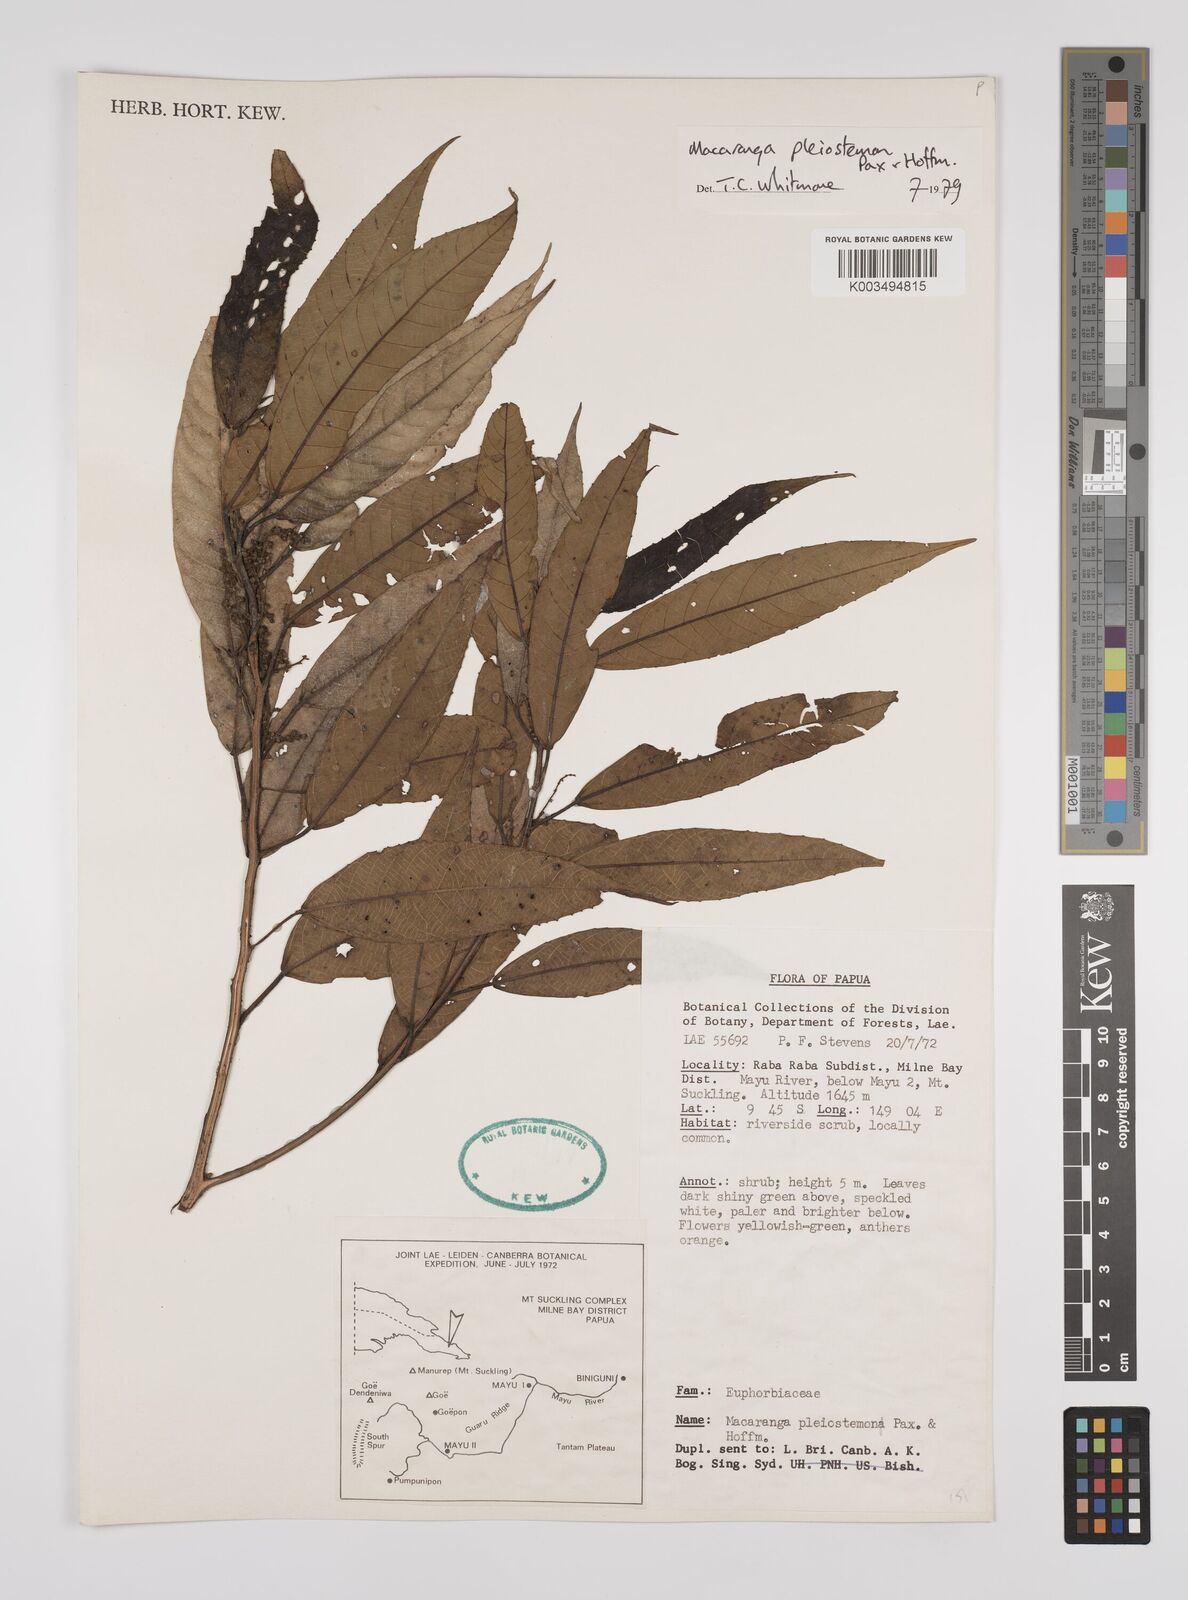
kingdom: Plantae
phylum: Tracheophyta
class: Magnoliopsida
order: Malpighiales
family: Euphorbiaceae
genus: Macaranga
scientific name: Macaranga pleiostemon
